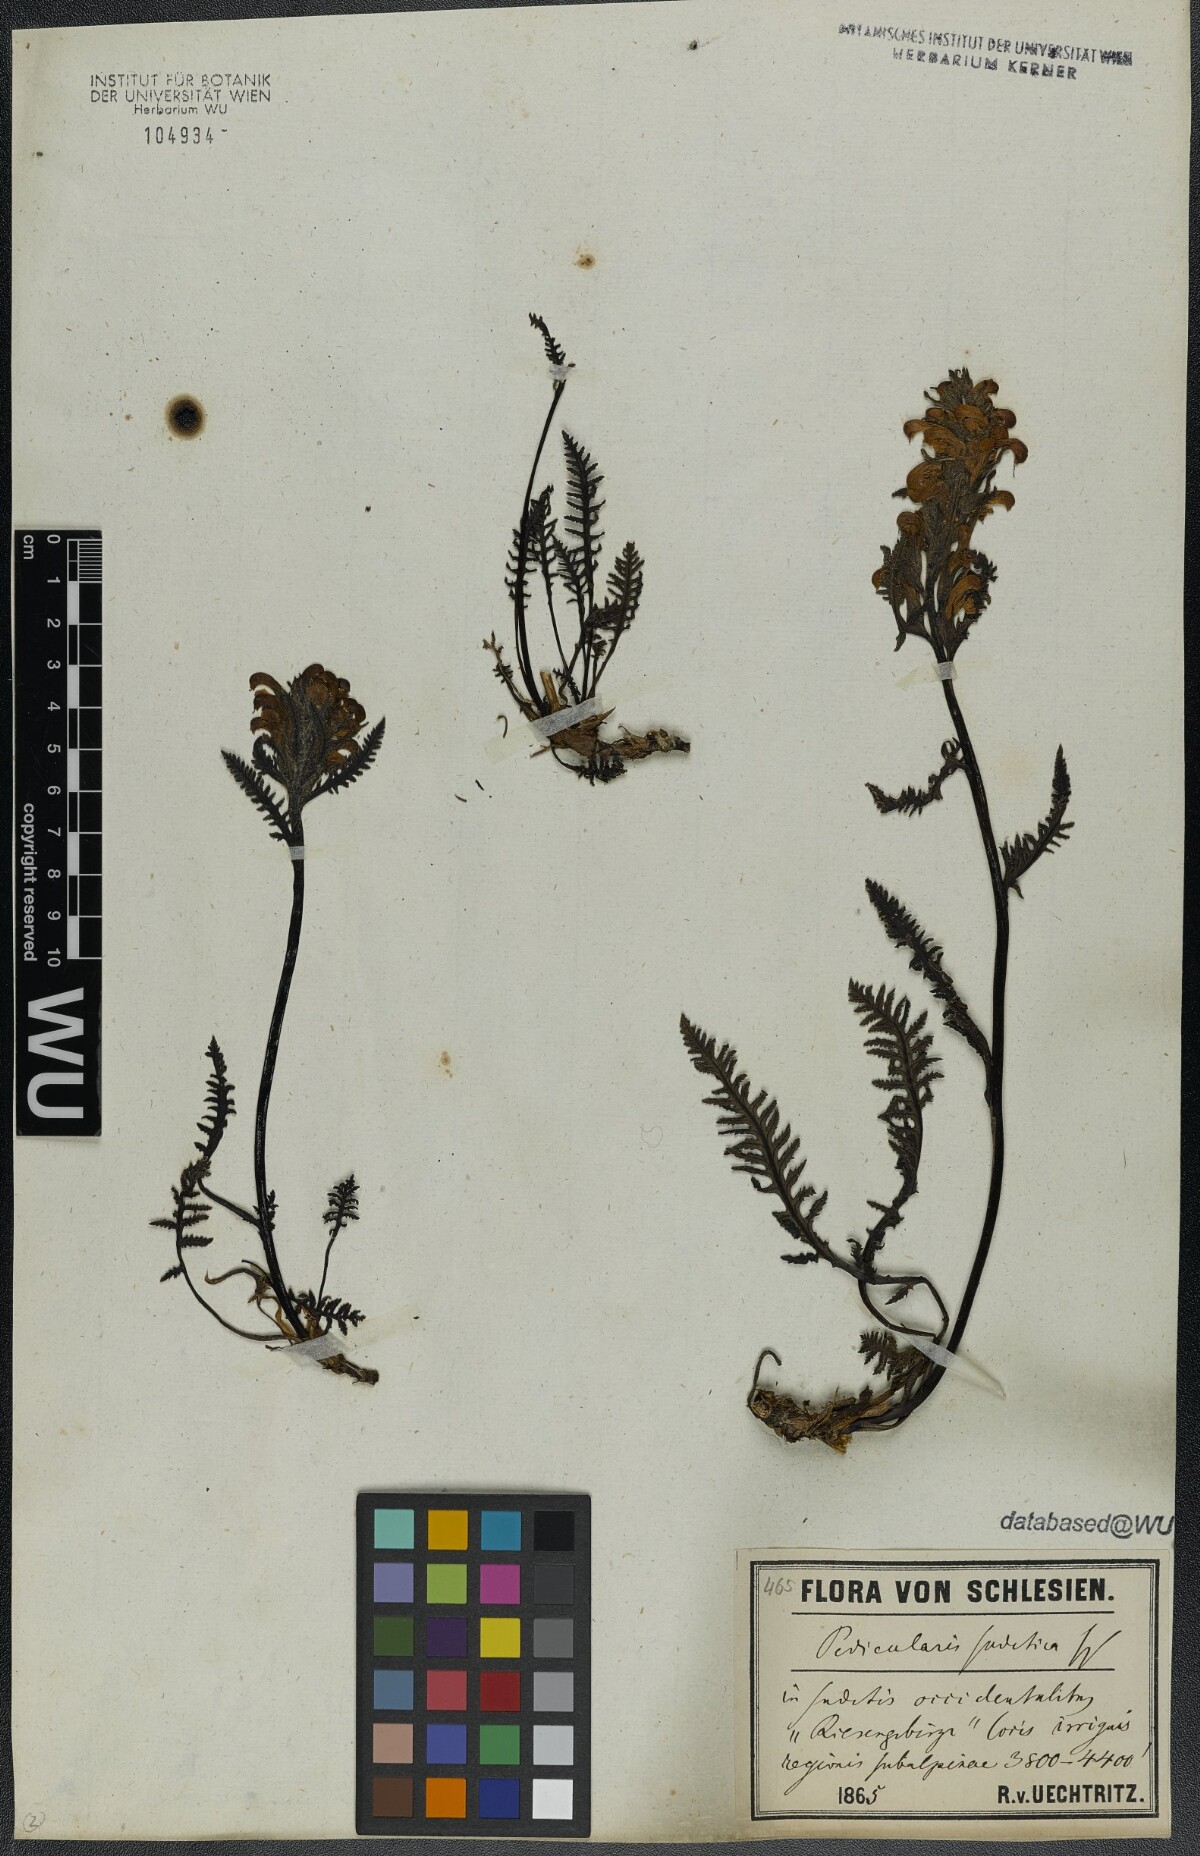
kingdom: Plantae
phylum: Tracheophyta
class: Magnoliopsida
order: Lamiales
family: Orobanchaceae
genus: Pedicularis
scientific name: Pedicularis sudetica
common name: Sudeten lousewort
